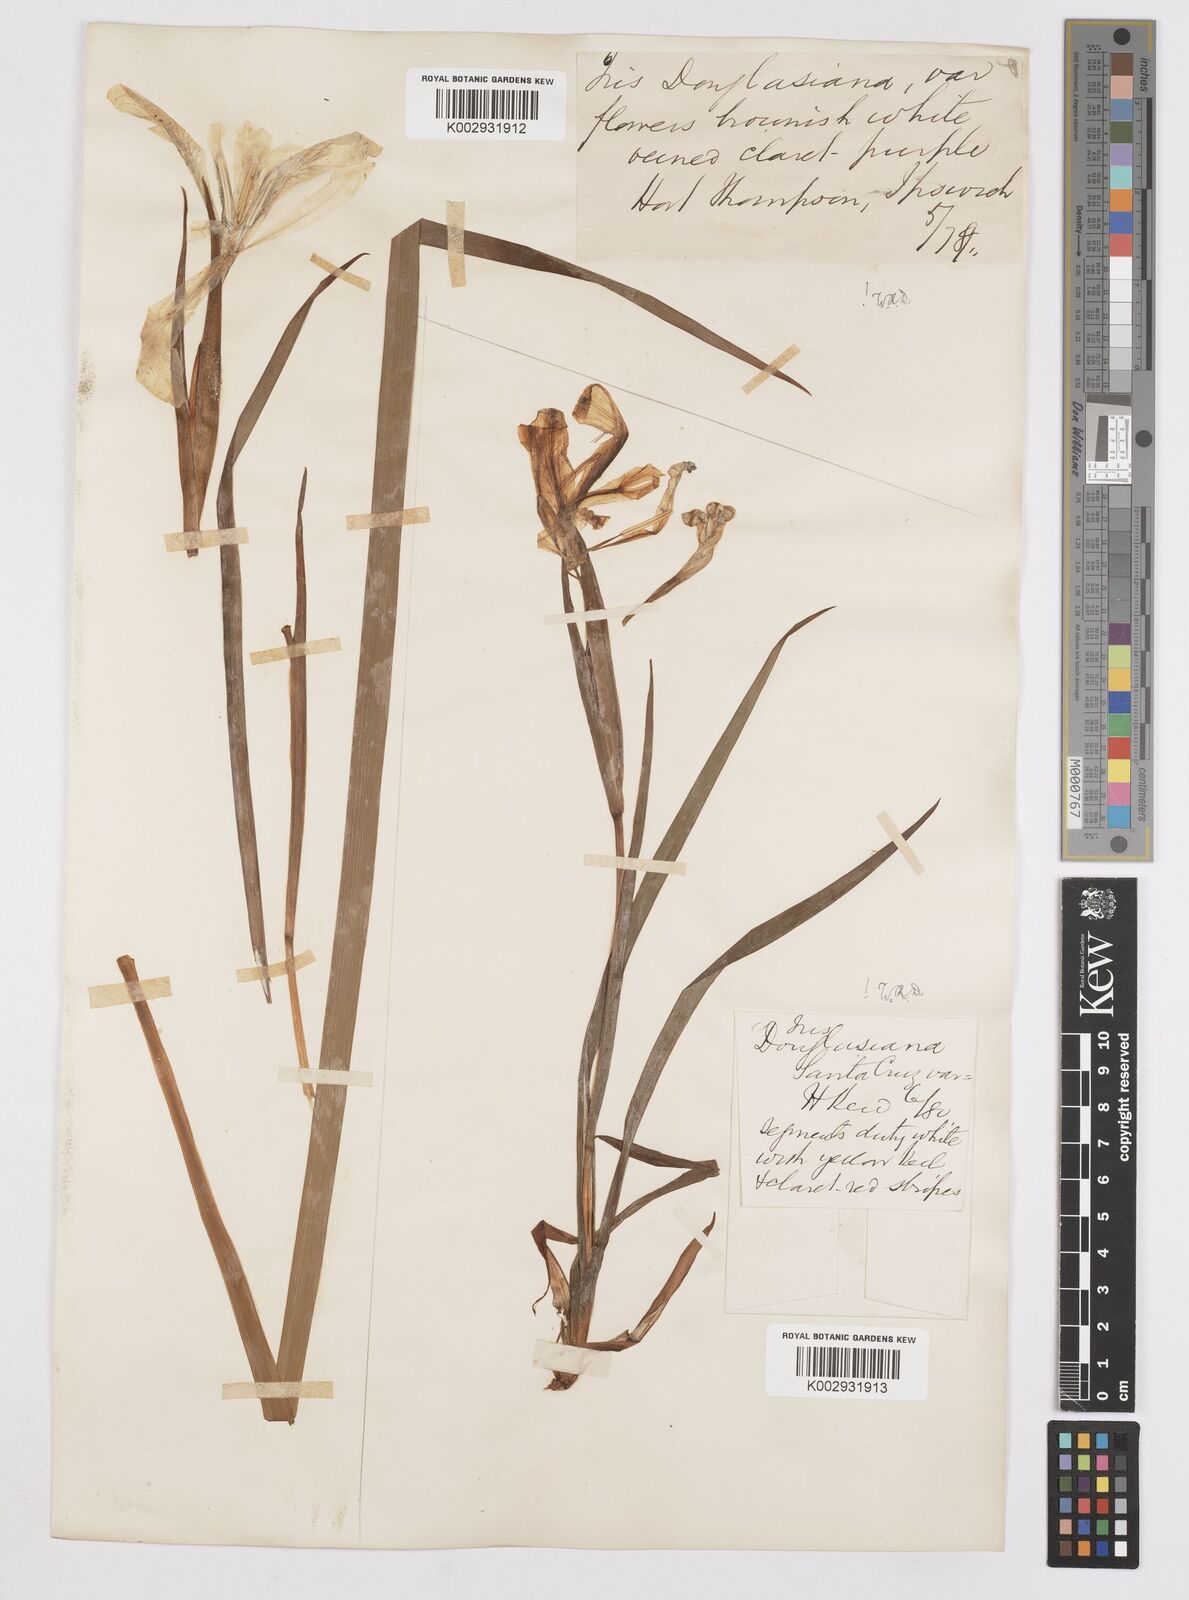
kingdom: Plantae
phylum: Tracheophyta
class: Liliopsida
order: Asparagales
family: Iridaceae
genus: Iris
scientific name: Iris douglasiana
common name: Marin iris
